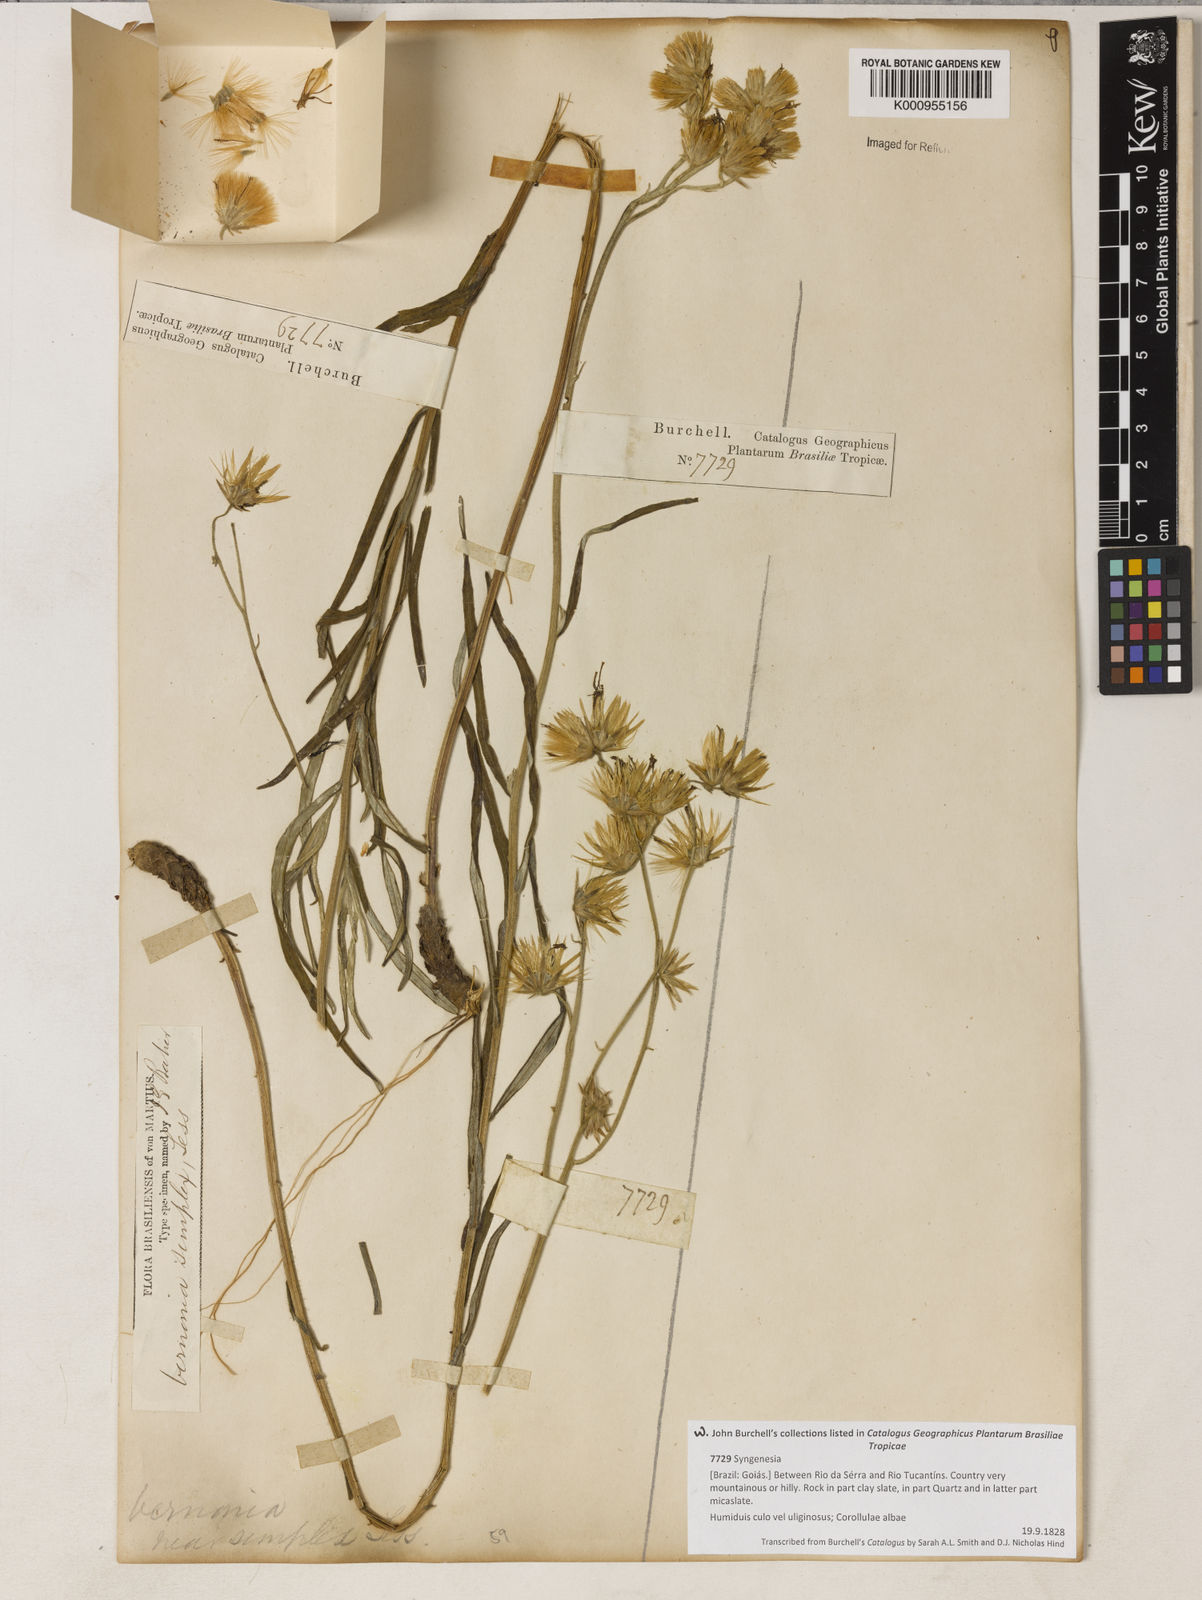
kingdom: Plantae
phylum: Tracheophyta
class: Magnoliopsida
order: Asterales
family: Asteraceae
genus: Chrysolaena
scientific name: Chrysolaena simplex
